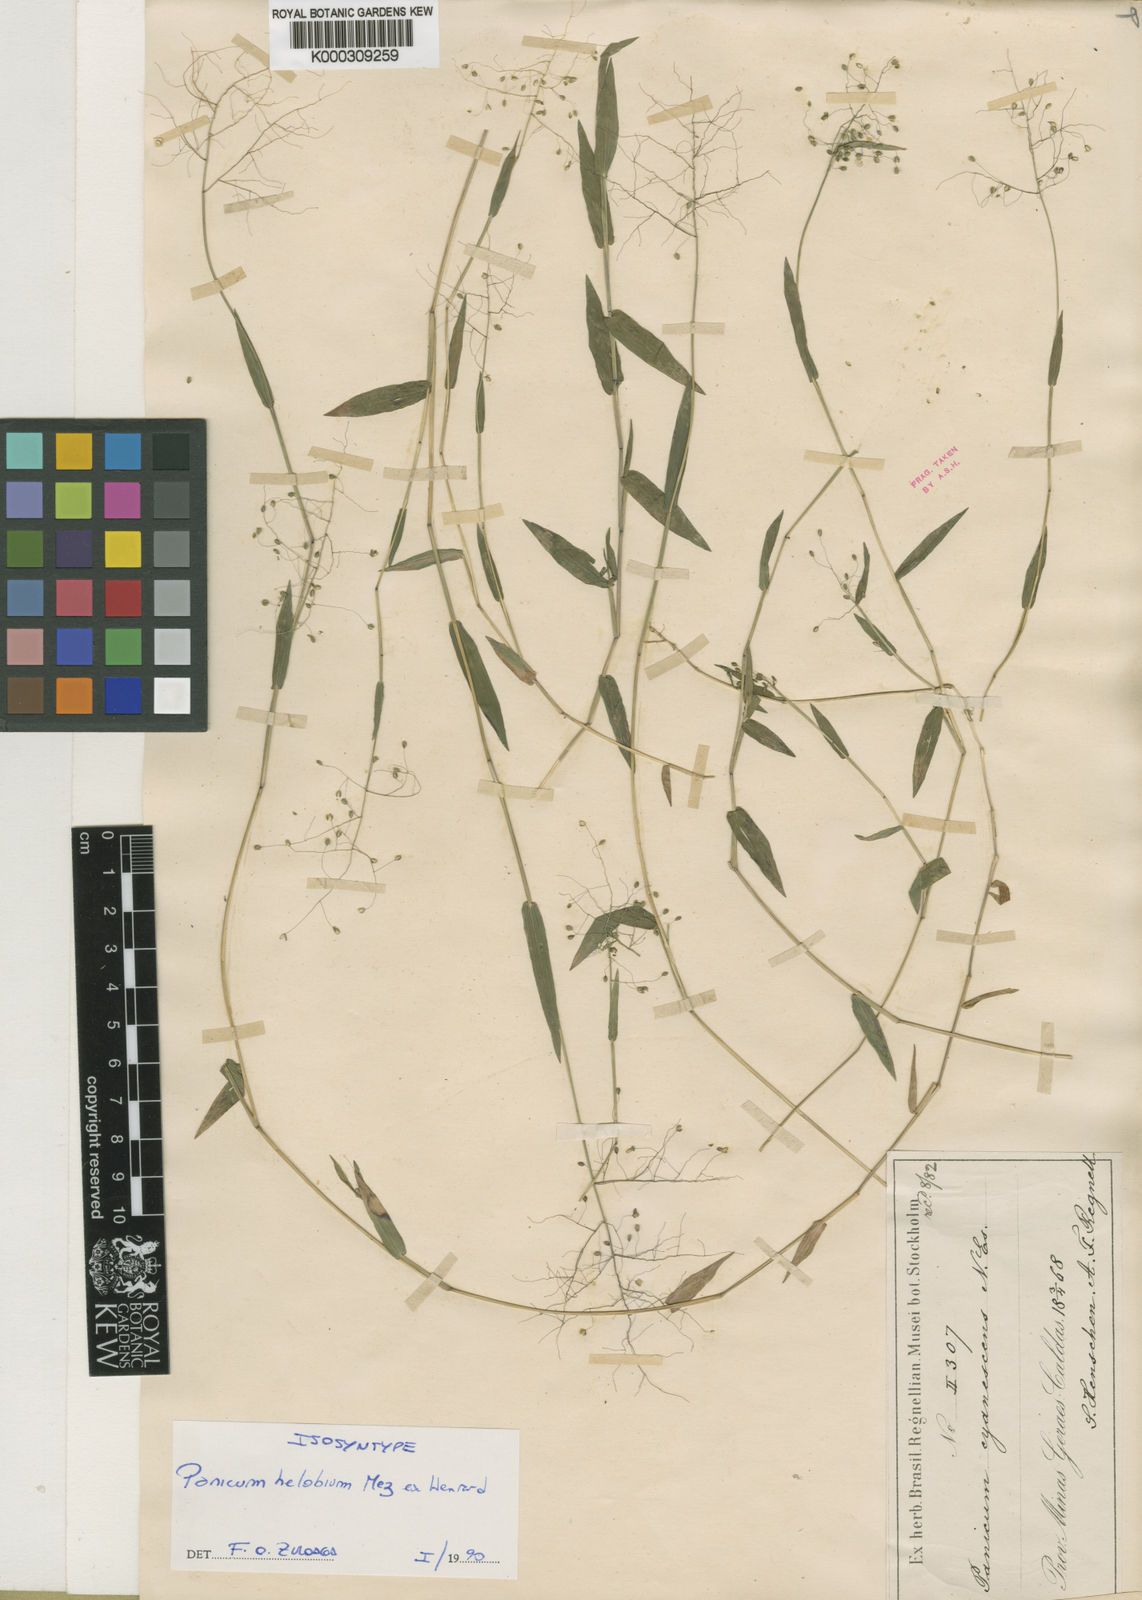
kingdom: Plantae
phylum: Tracheophyta
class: Liliopsida
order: Poales
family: Poaceae
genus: Trichanthecium
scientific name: Trichanthecium schwackeanum
